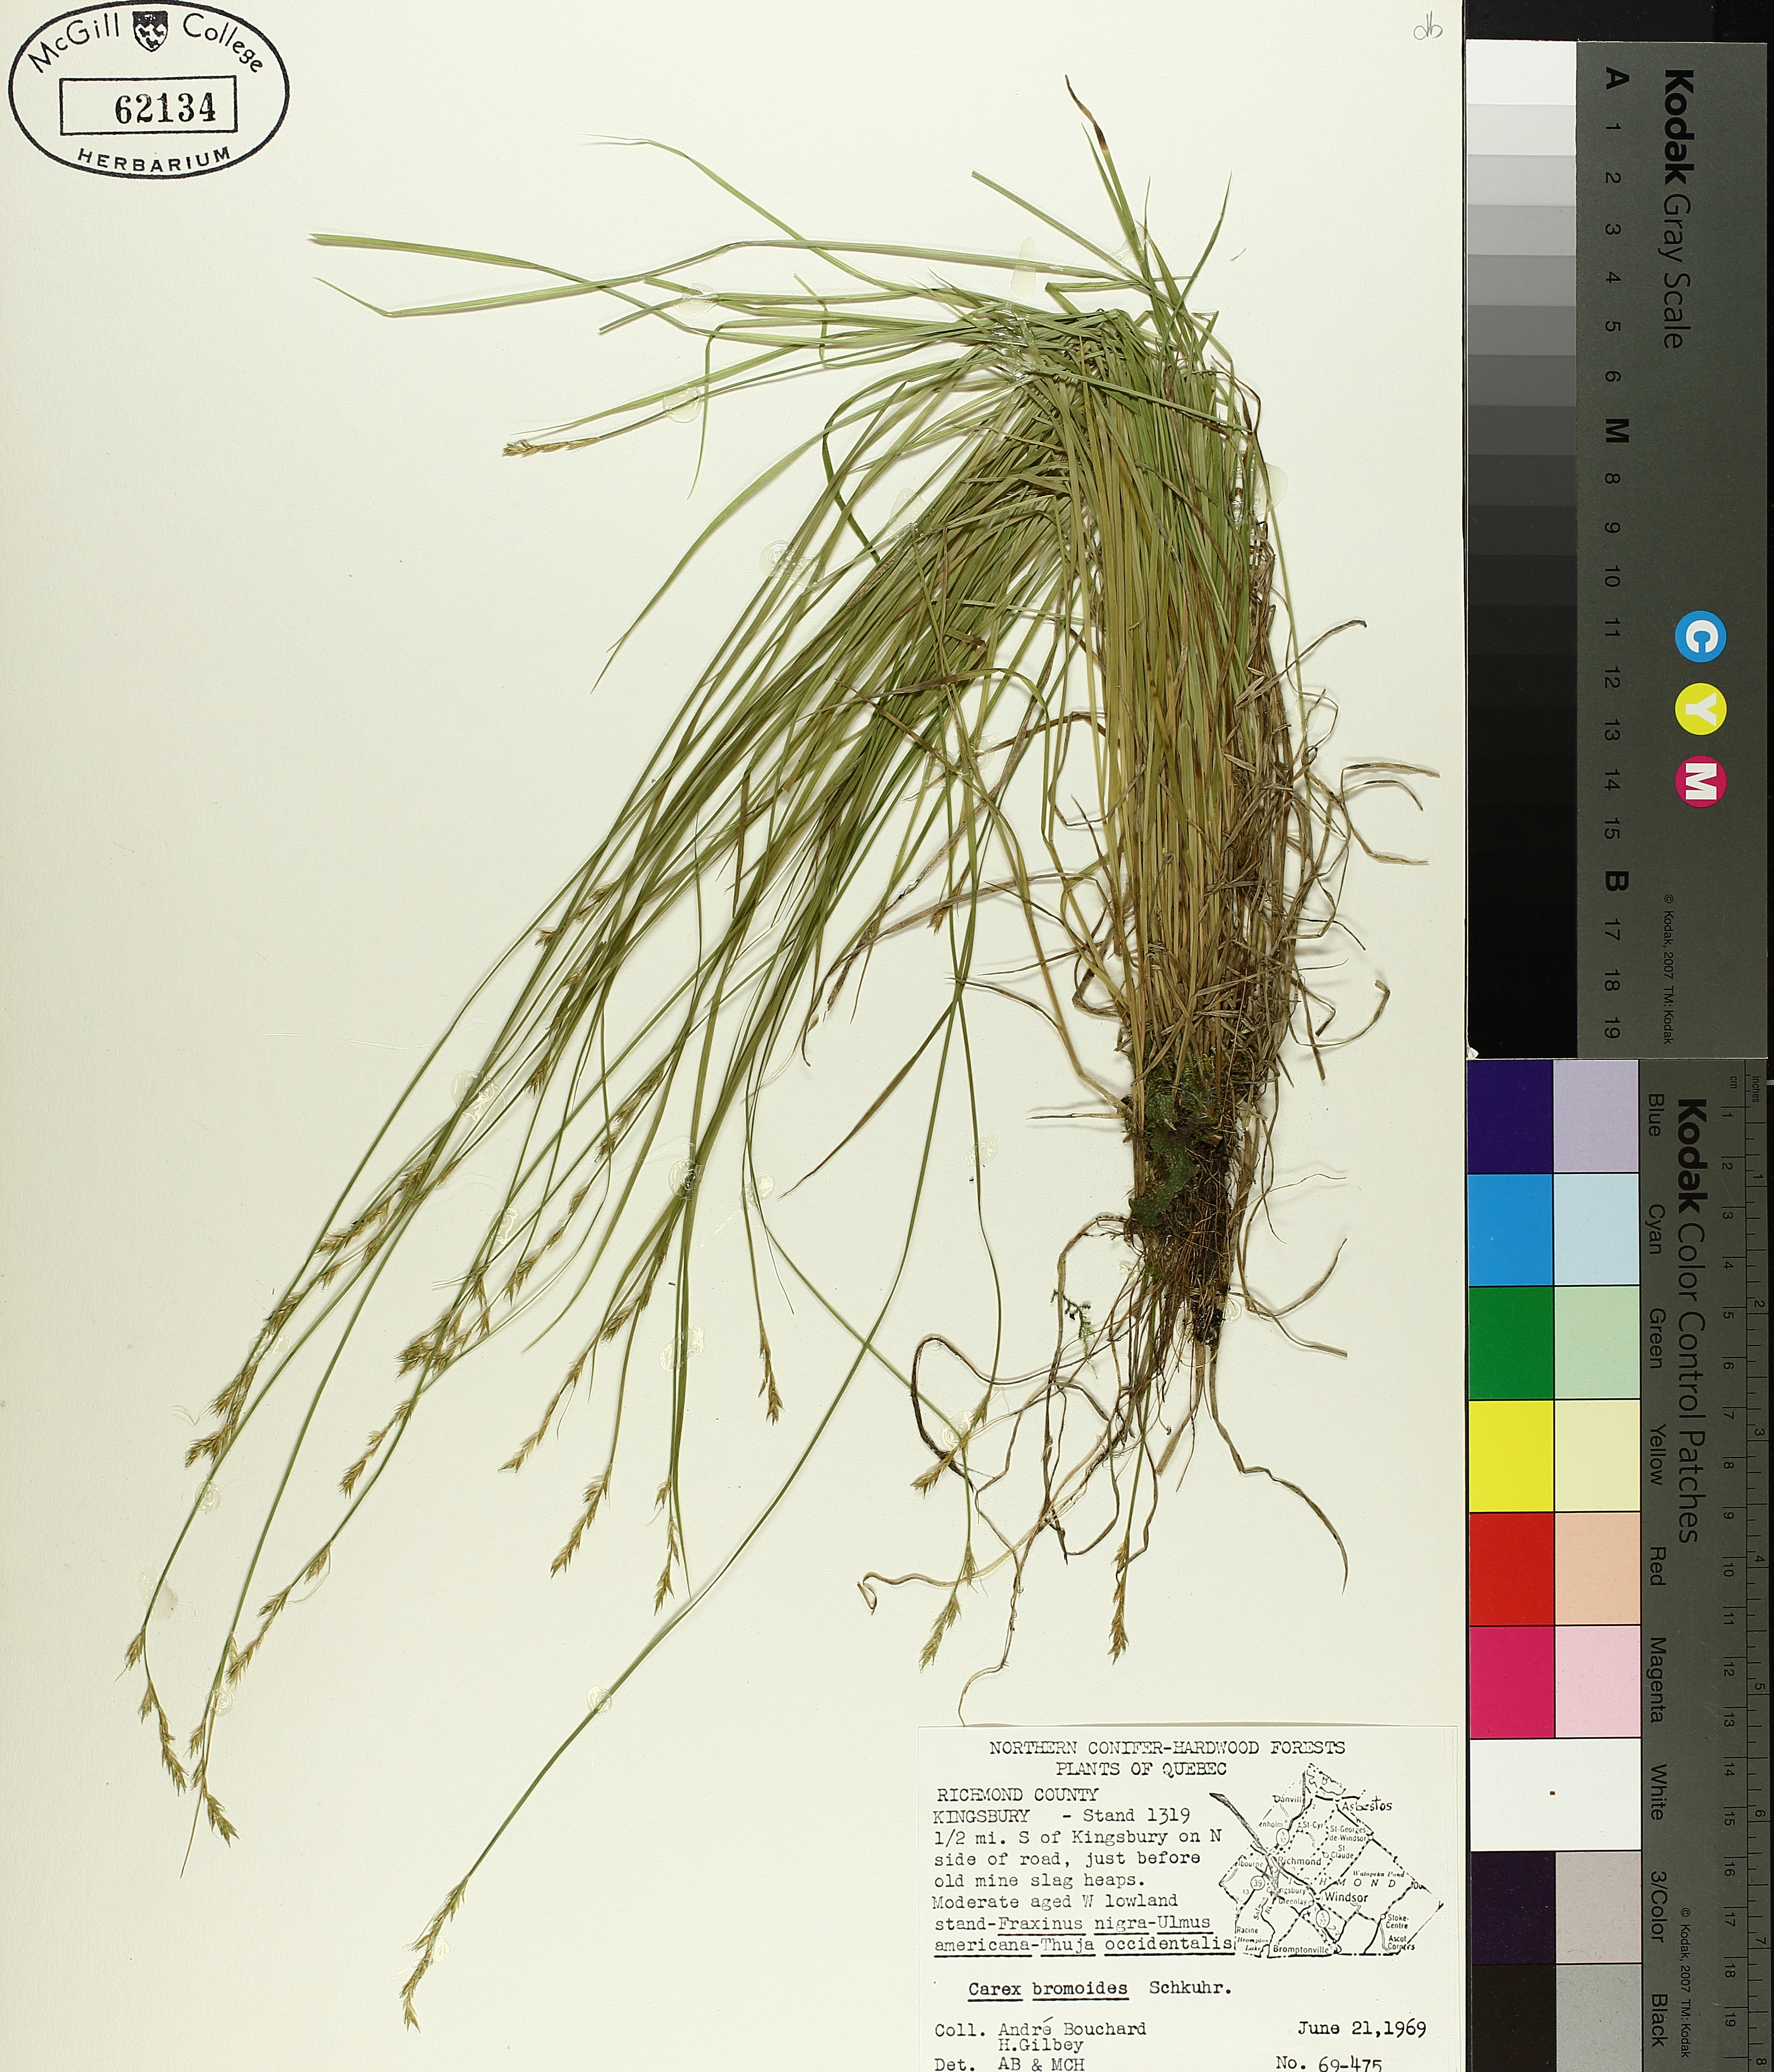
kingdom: Plantae
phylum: Tracheophyta
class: Liliopsida
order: Poales
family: Cyperaceae
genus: Carex
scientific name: Carex bromoides
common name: Brome hummock sedge
